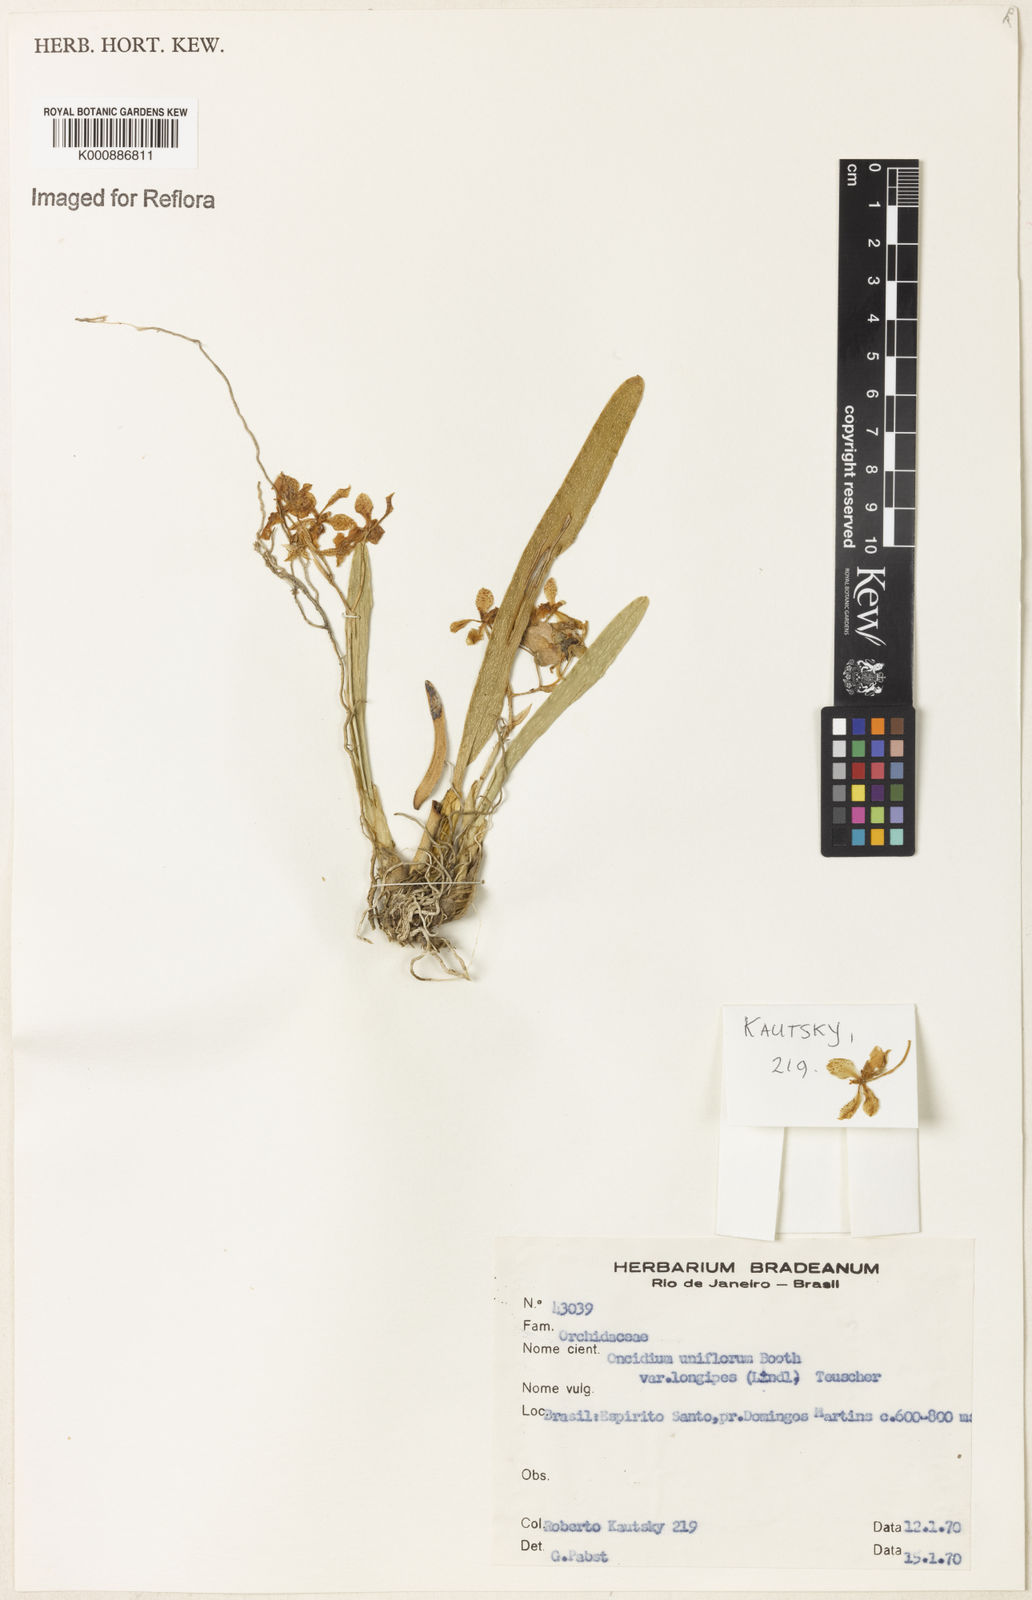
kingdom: Plantae
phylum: Tracheophyta
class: Liliopsida
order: Asparagales
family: Orchidaceae
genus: Gomesa
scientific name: Gomesa uniflora
